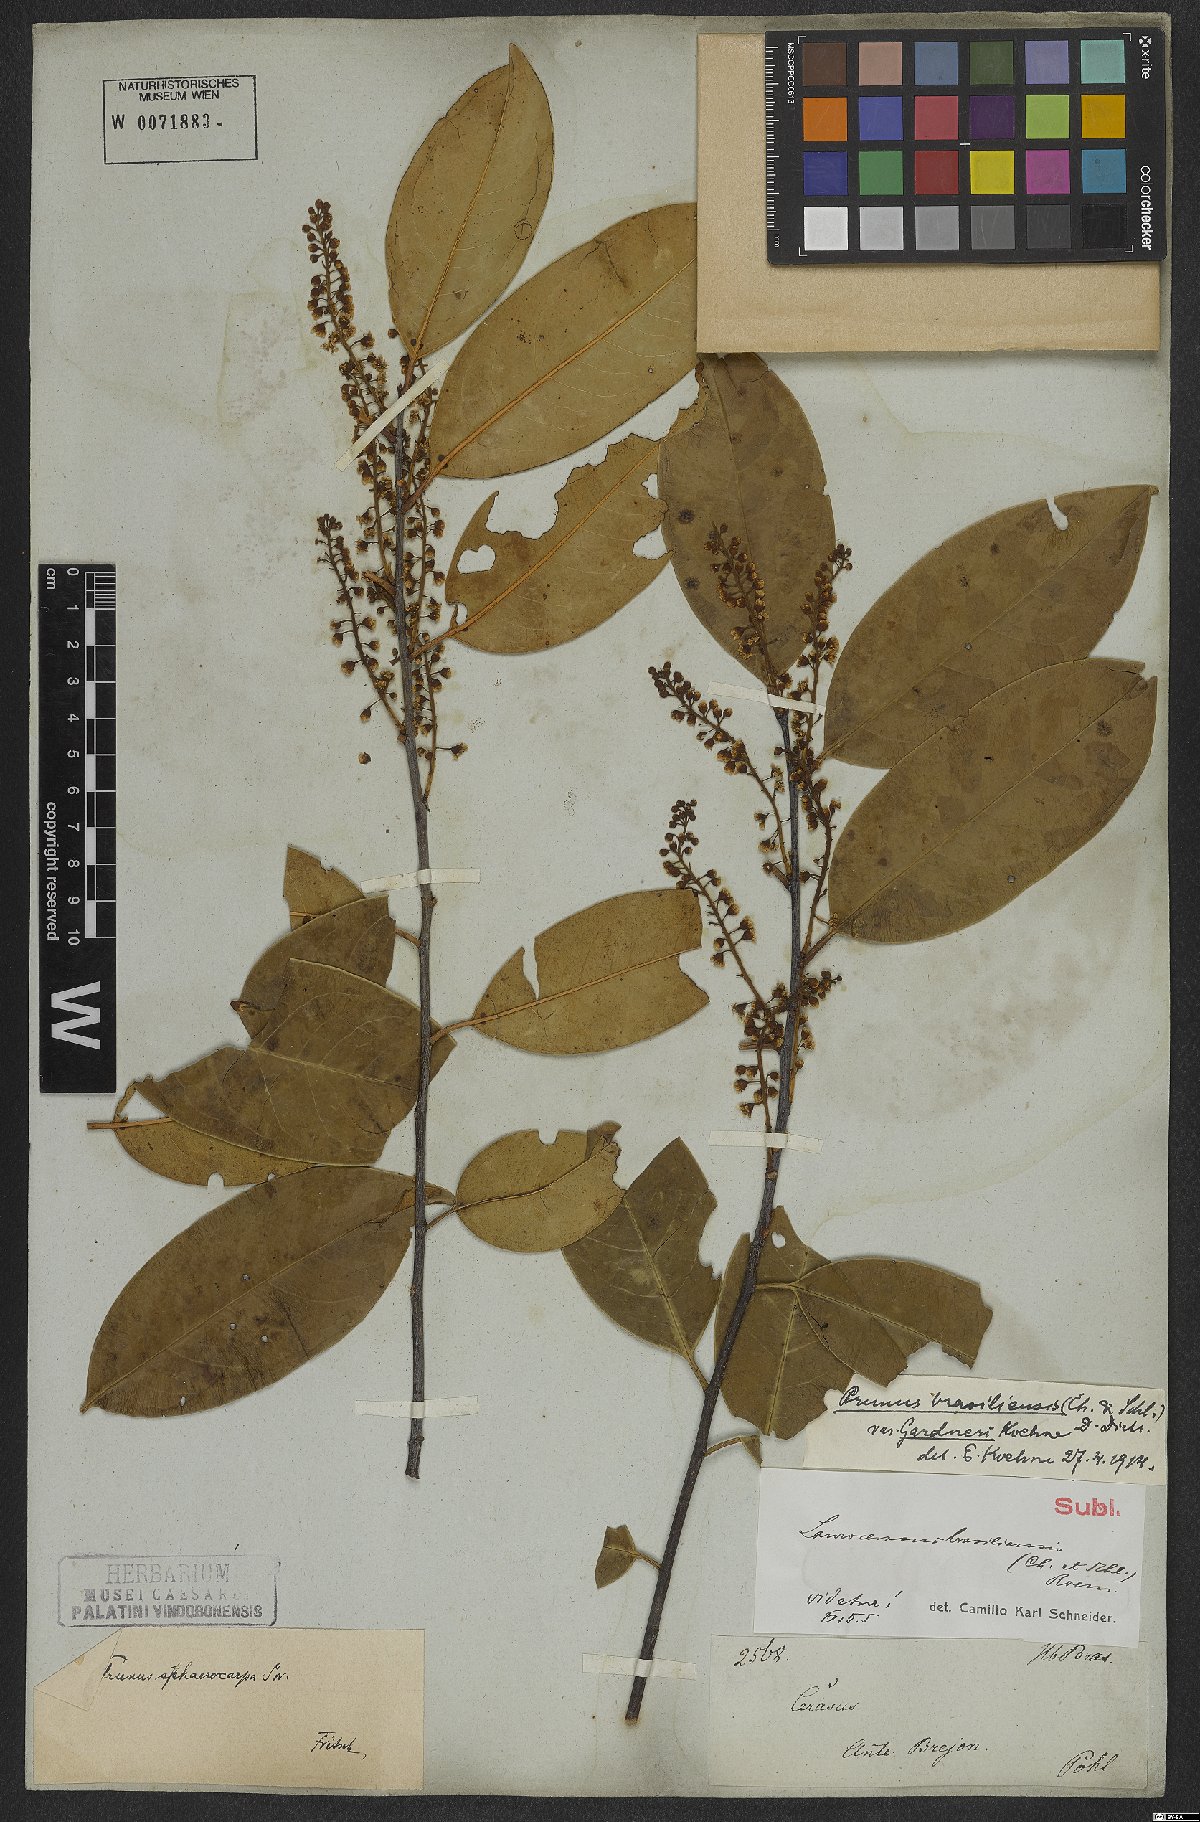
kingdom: Plantae
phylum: Tracheophyta
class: Magnoliopsida
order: Rosales
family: Rosaceae
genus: Prunus
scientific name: Prunus brasiliensis
